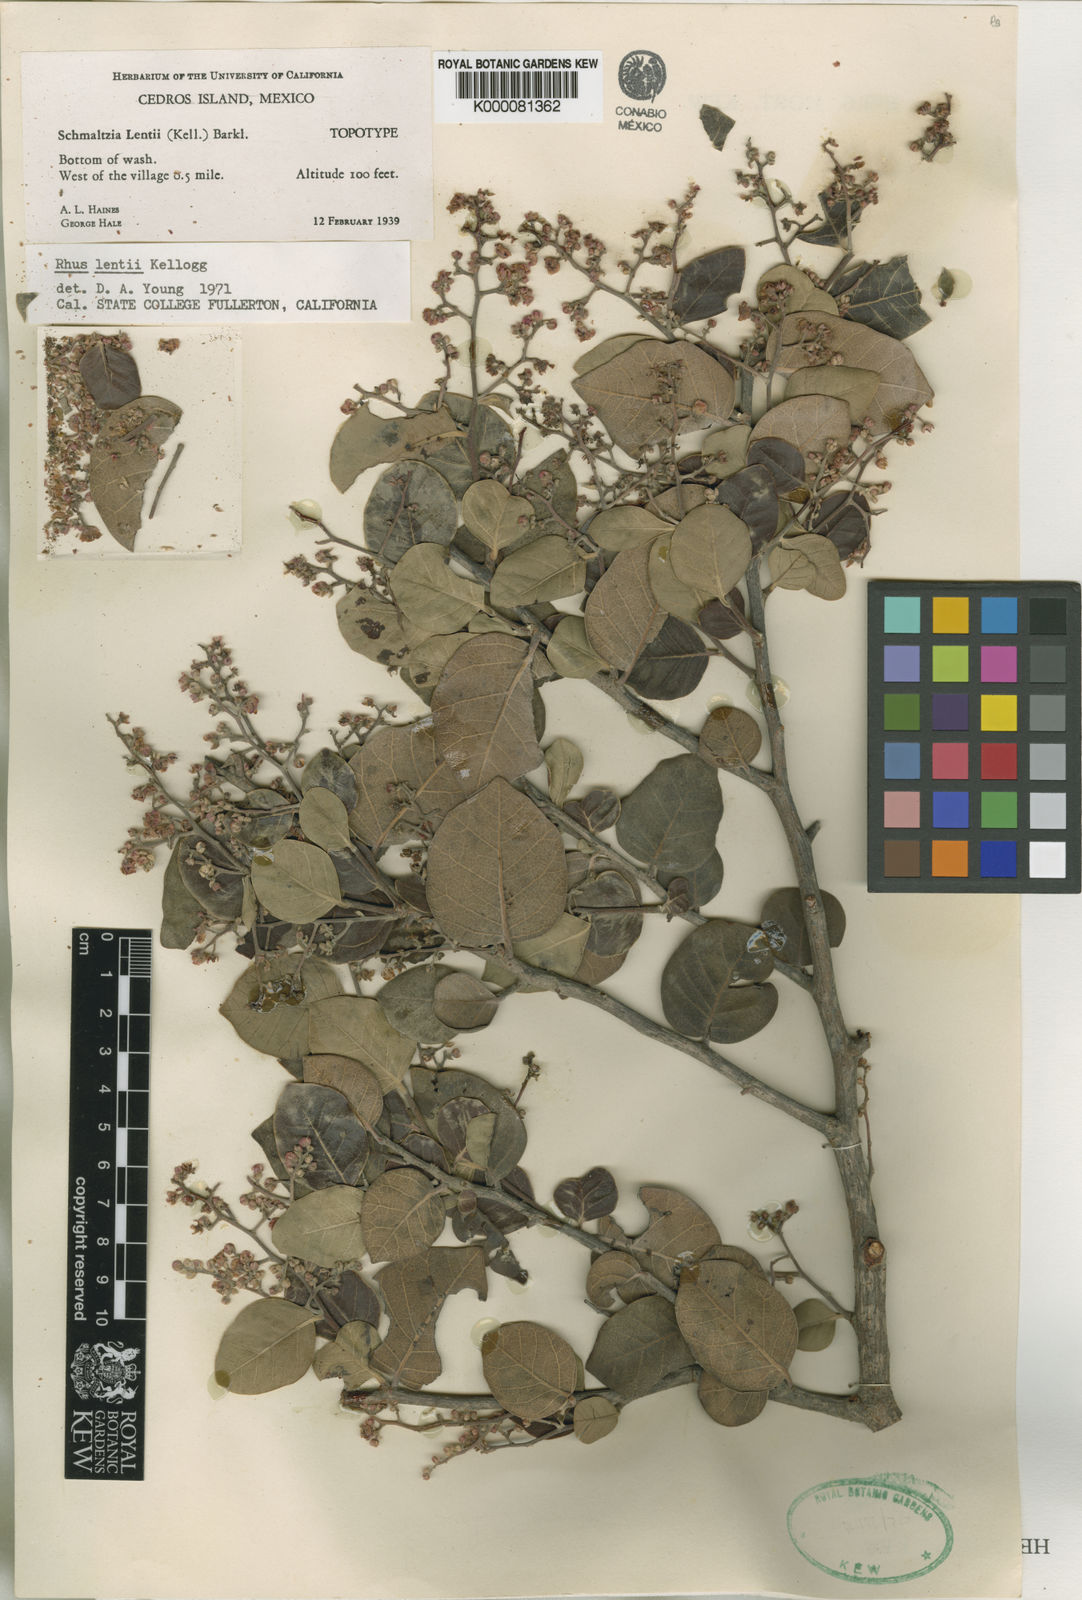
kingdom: Plantae
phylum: Tracheophyta
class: Magnoliopsida
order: Sapindales
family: Anacardiaceae
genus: Rhus
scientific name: Rhus lentii
